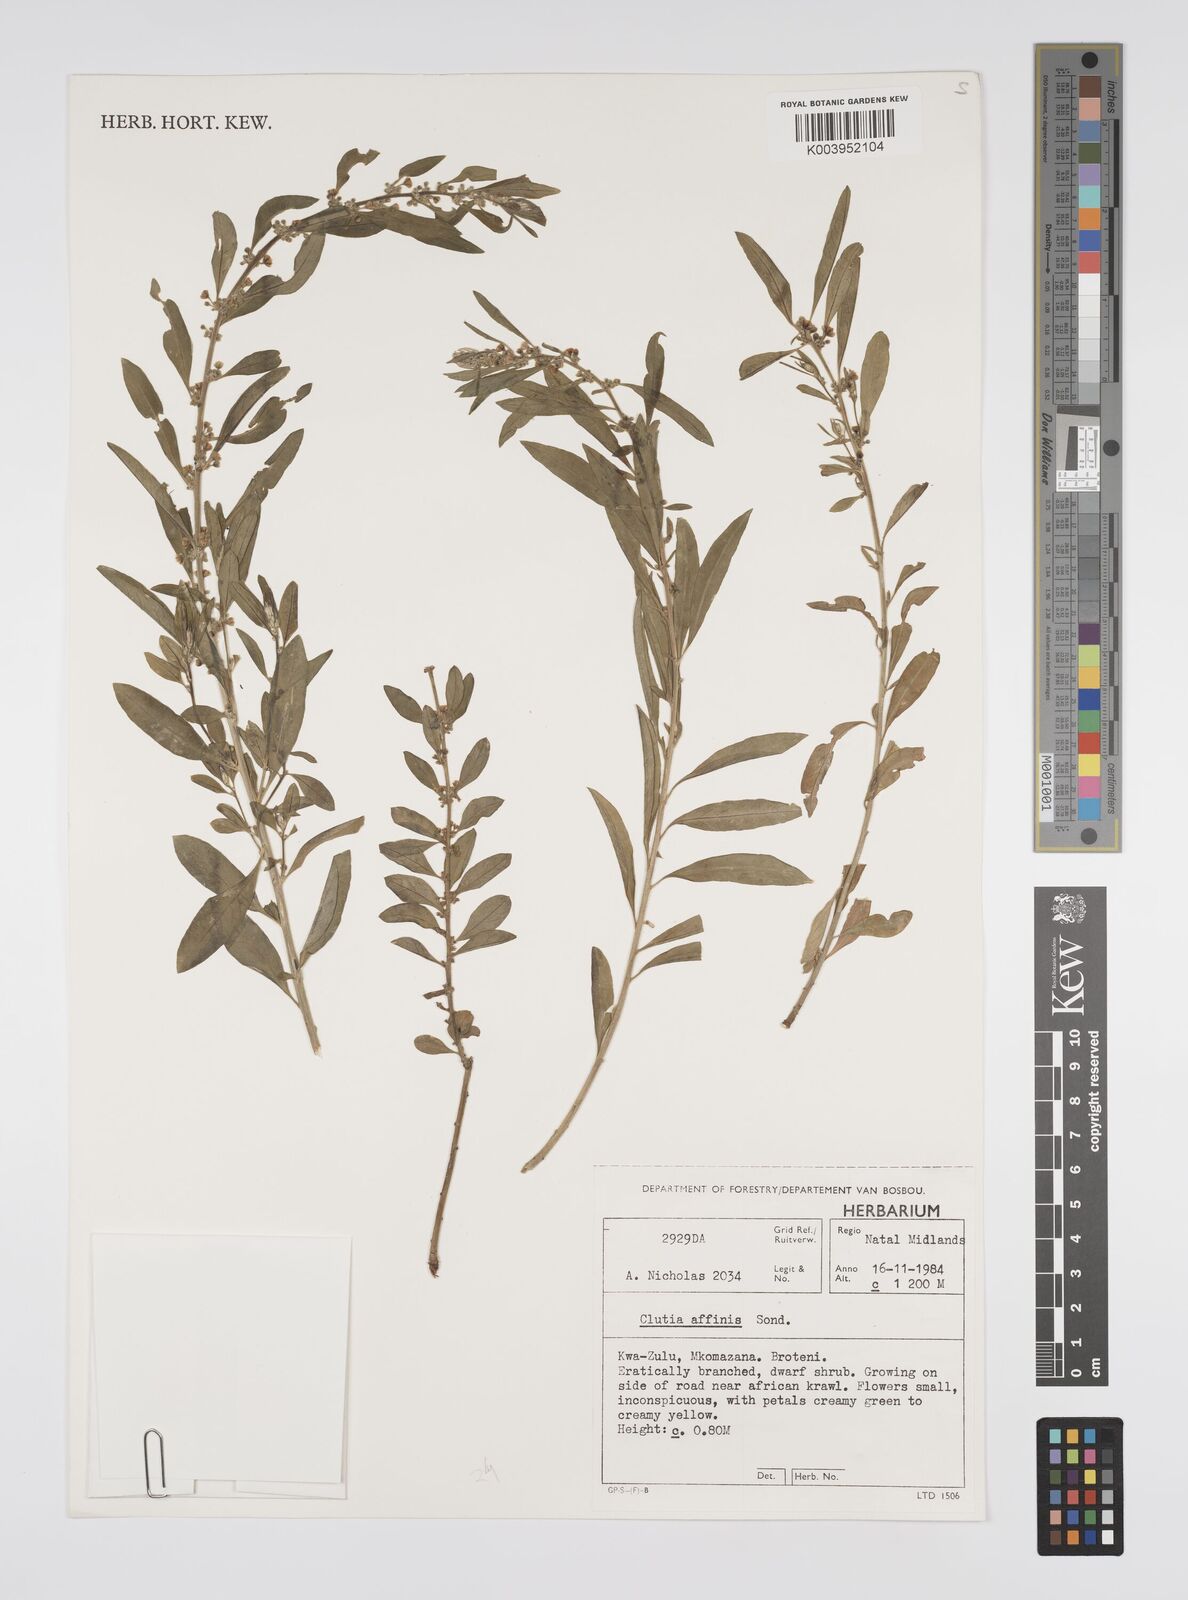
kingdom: Plantae
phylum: Tracheophyta
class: Magnoliopsida
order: Malpighiales
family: Peraceae
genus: Clutia
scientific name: Clutia affinis
